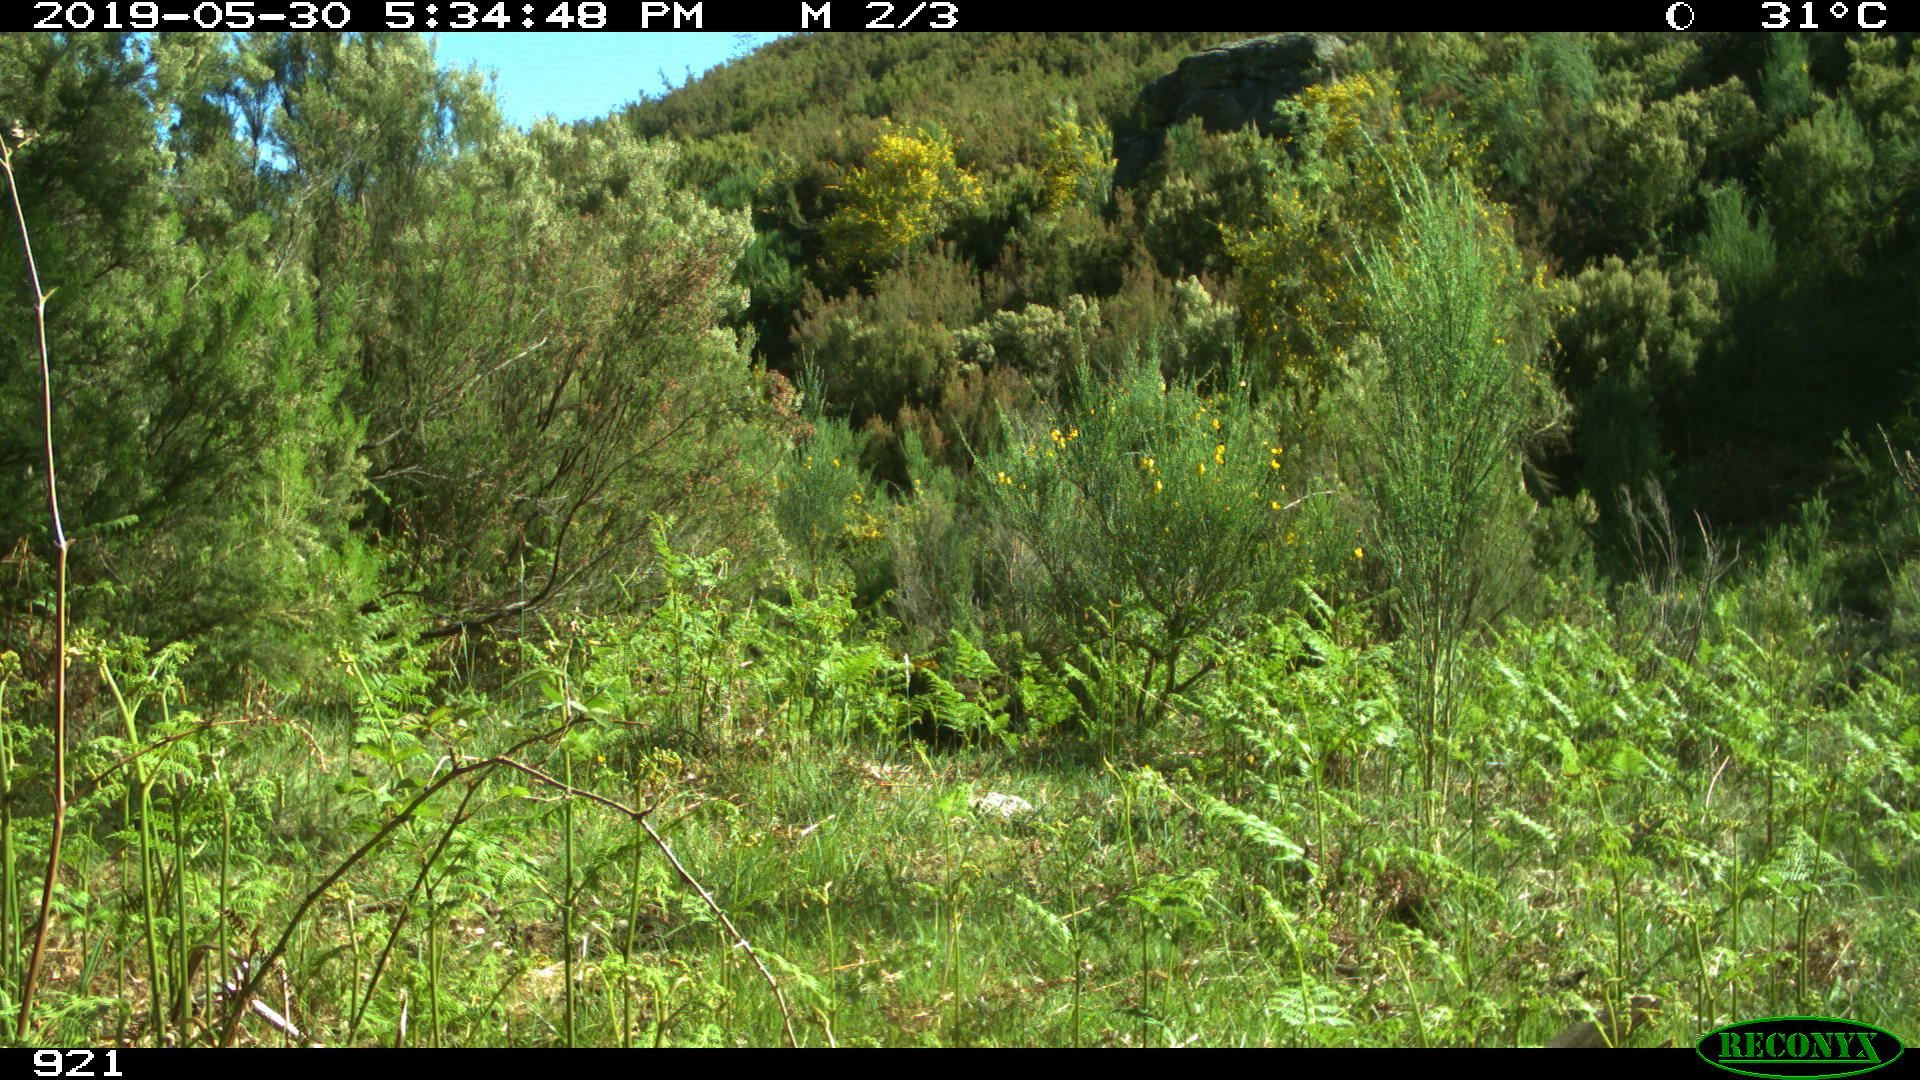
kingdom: Animalia
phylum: Chordata
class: Mammalia
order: Artiodactyla
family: Suidae
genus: Sus
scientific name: Sus scrofa
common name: Wild boar
